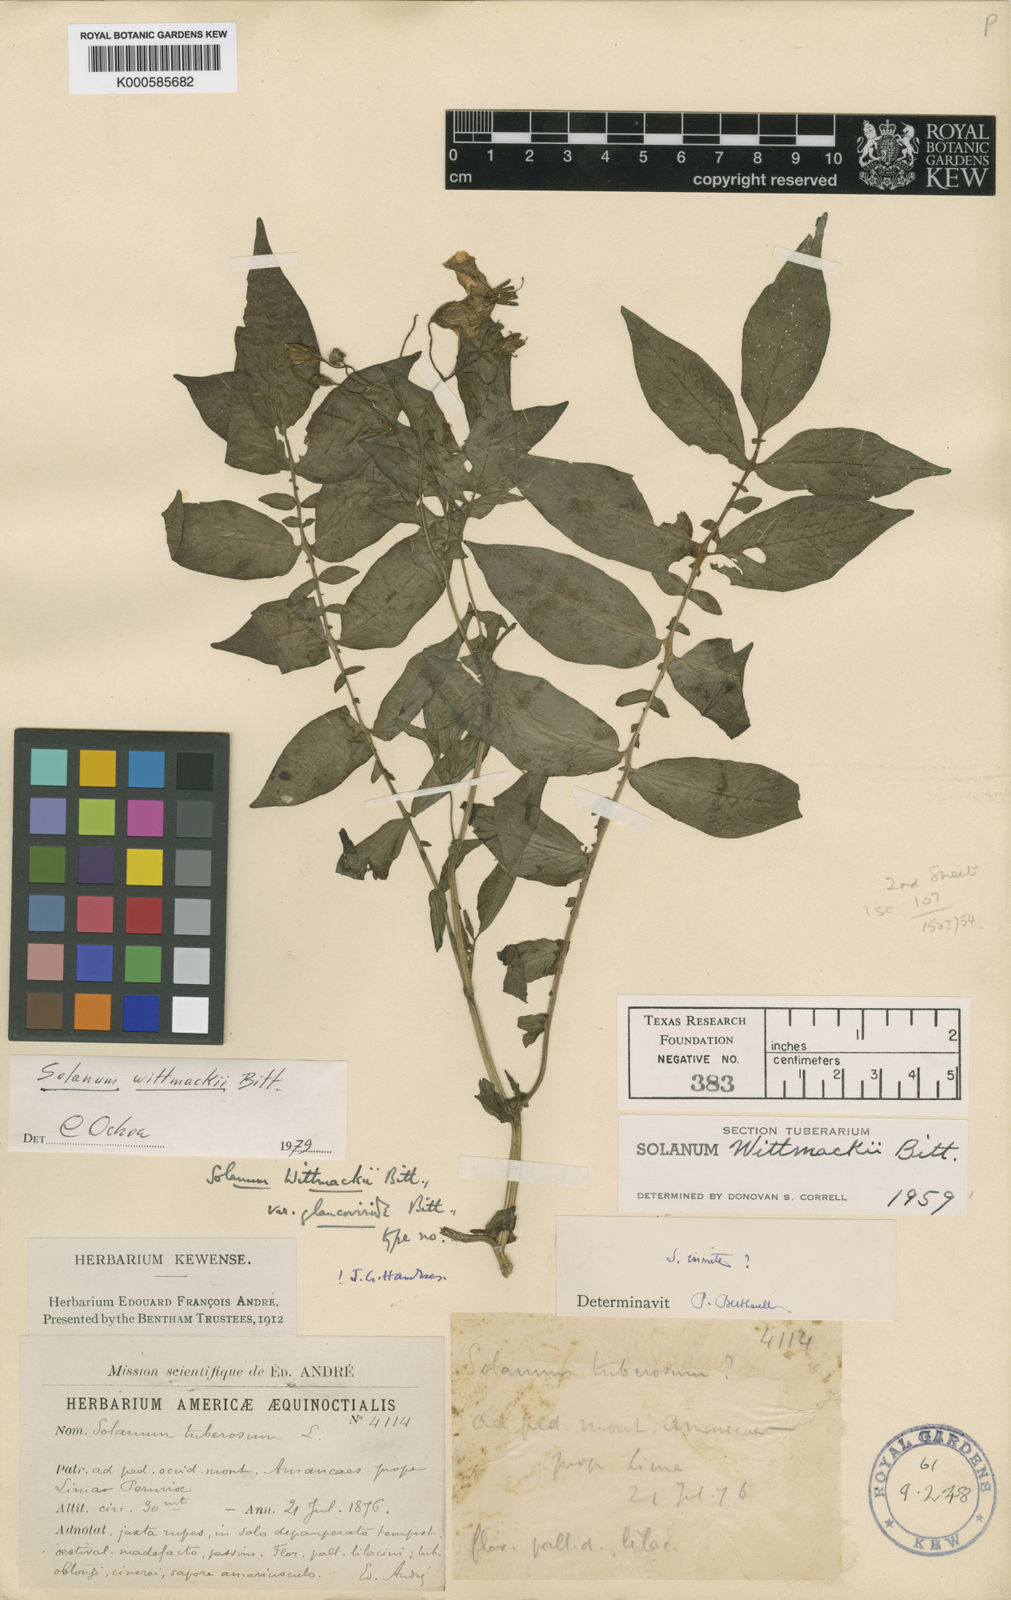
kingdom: Plantae
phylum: Tracheophyta
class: Magnoliopsida
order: Solanales
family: Solanaceae
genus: Solanum
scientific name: Solanum wittmackii
